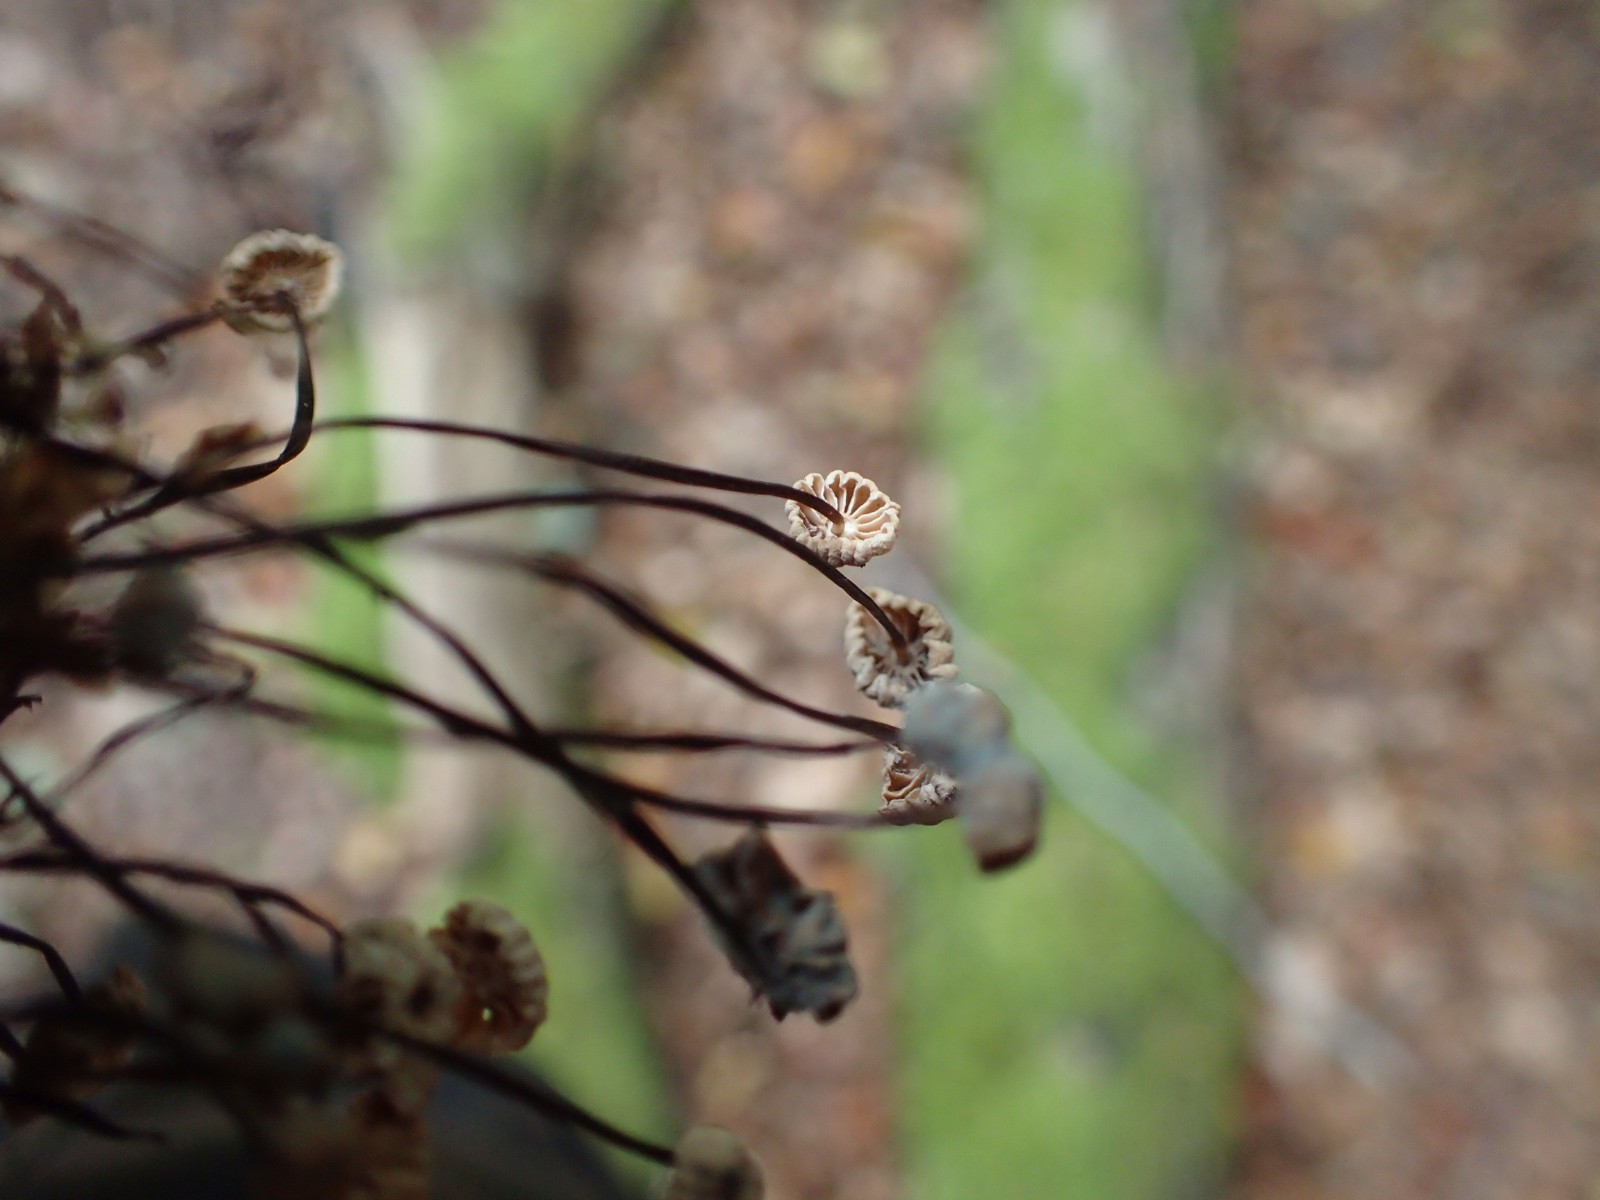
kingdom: Fungi
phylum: Basidiomycota
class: Agaricomycetes
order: Agaricales
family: Marasmiaceae
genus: Marasmius
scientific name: Marasmius rotula
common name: hjul-bruskhat
